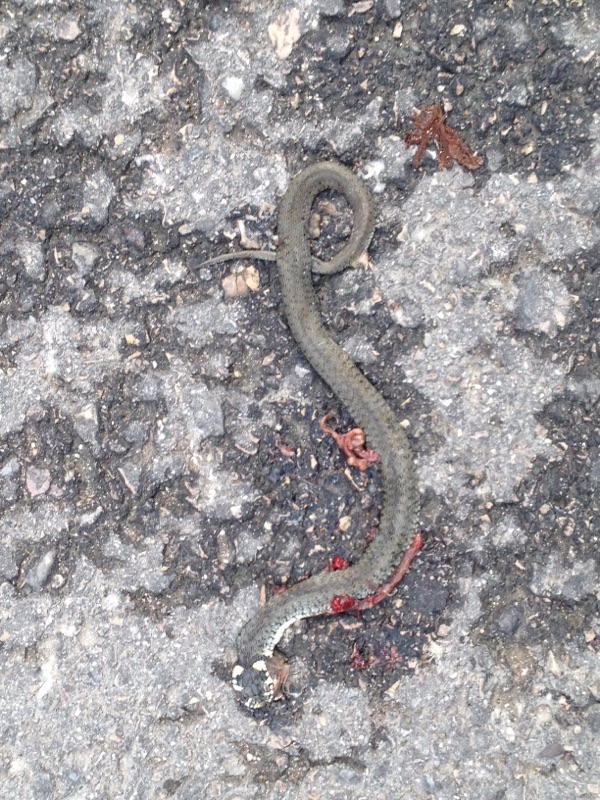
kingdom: Animalia
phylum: Chordata
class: Squamata
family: Colubridae
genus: Natrix
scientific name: Natrix natrix
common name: Grass snake
